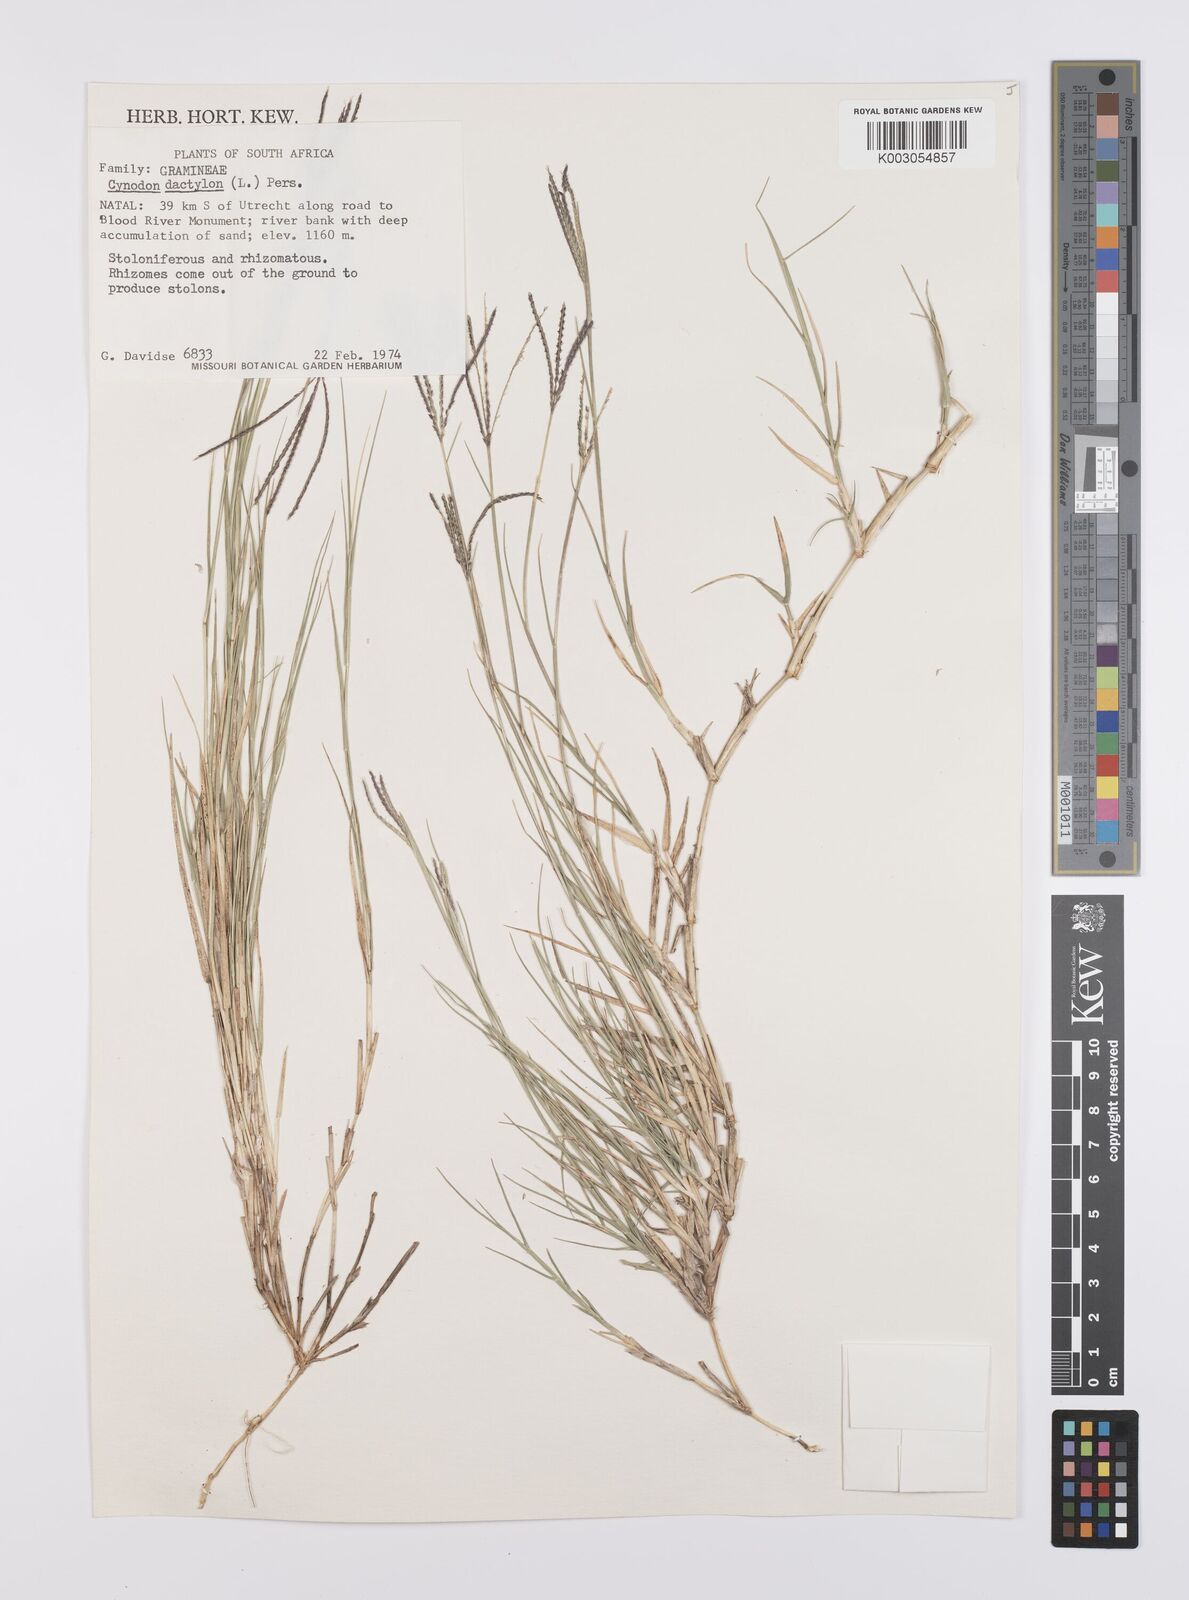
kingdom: Plantae
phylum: Tracheophyta
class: Liliopsida
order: Poales
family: Poaceae
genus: Cynodon
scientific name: Cynodon dactylon
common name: Bermuda grass
